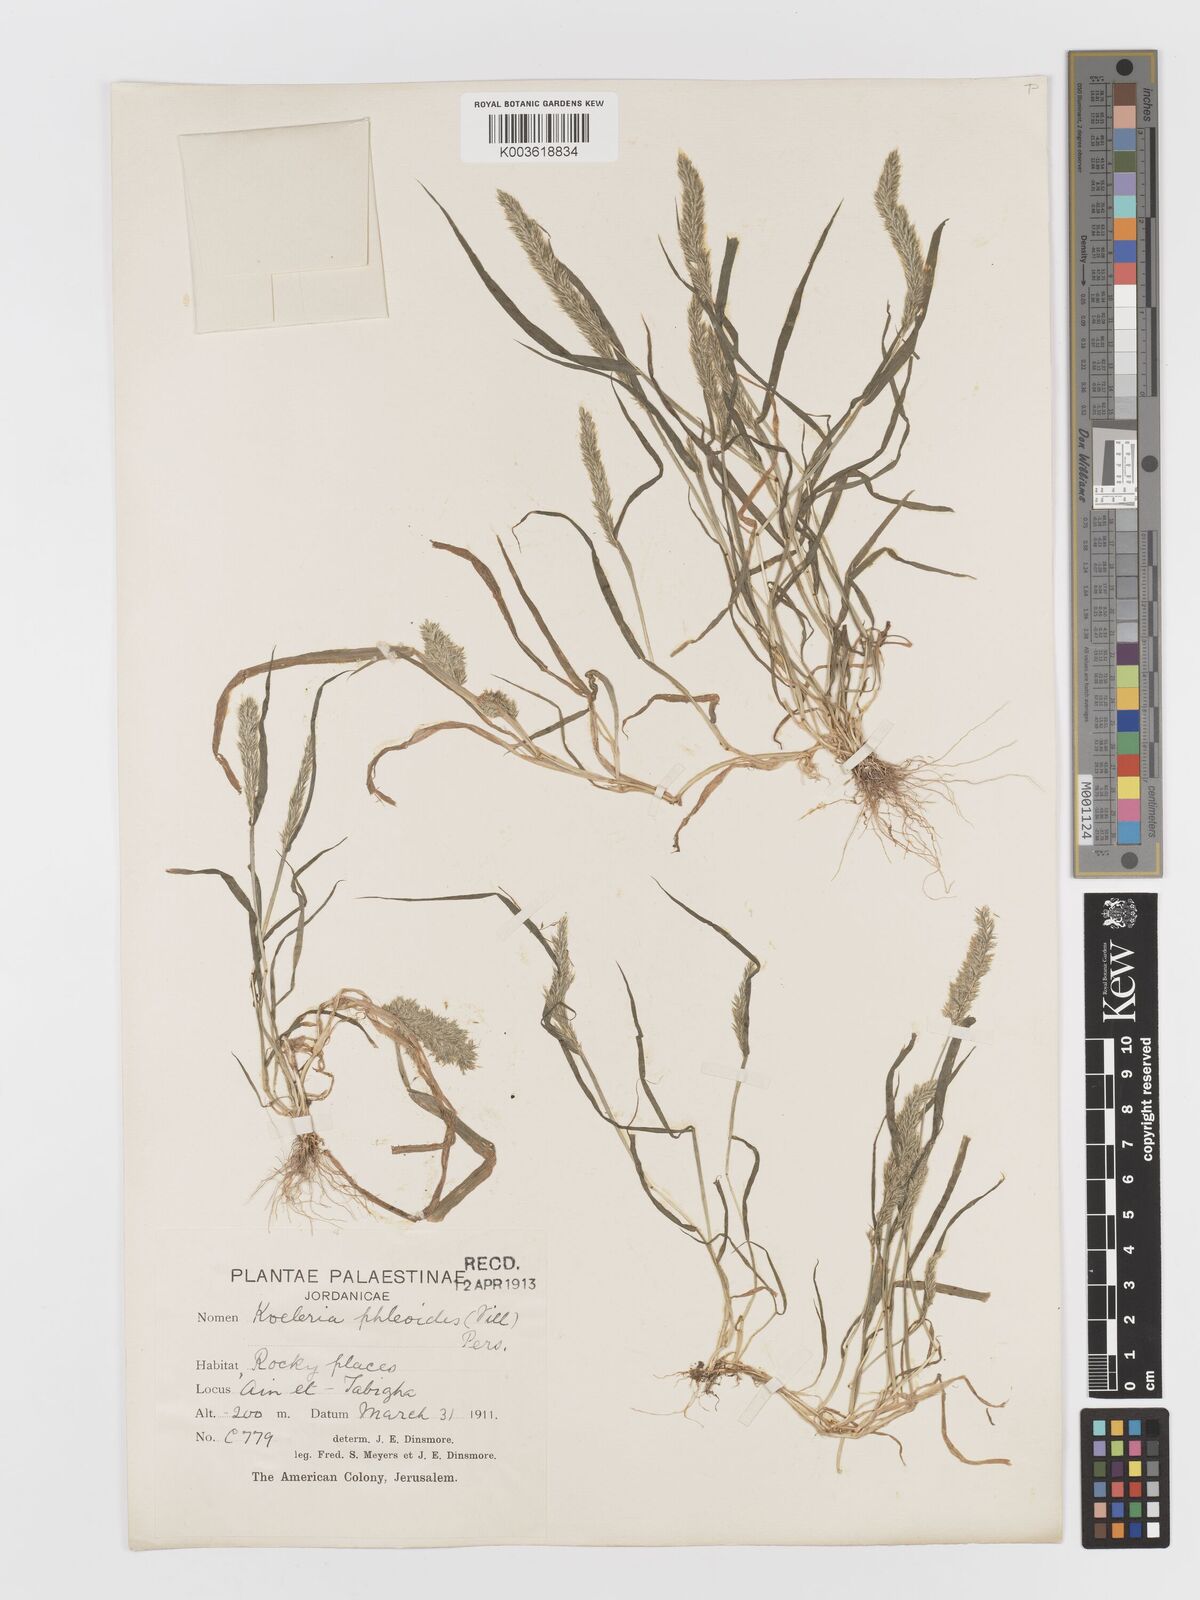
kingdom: Plantae
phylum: Tracheophyta
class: Liliopsida
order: Poales
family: Poaceae
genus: Rostraria
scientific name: Rostraria cristata
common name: Mediterranean hair-grass
